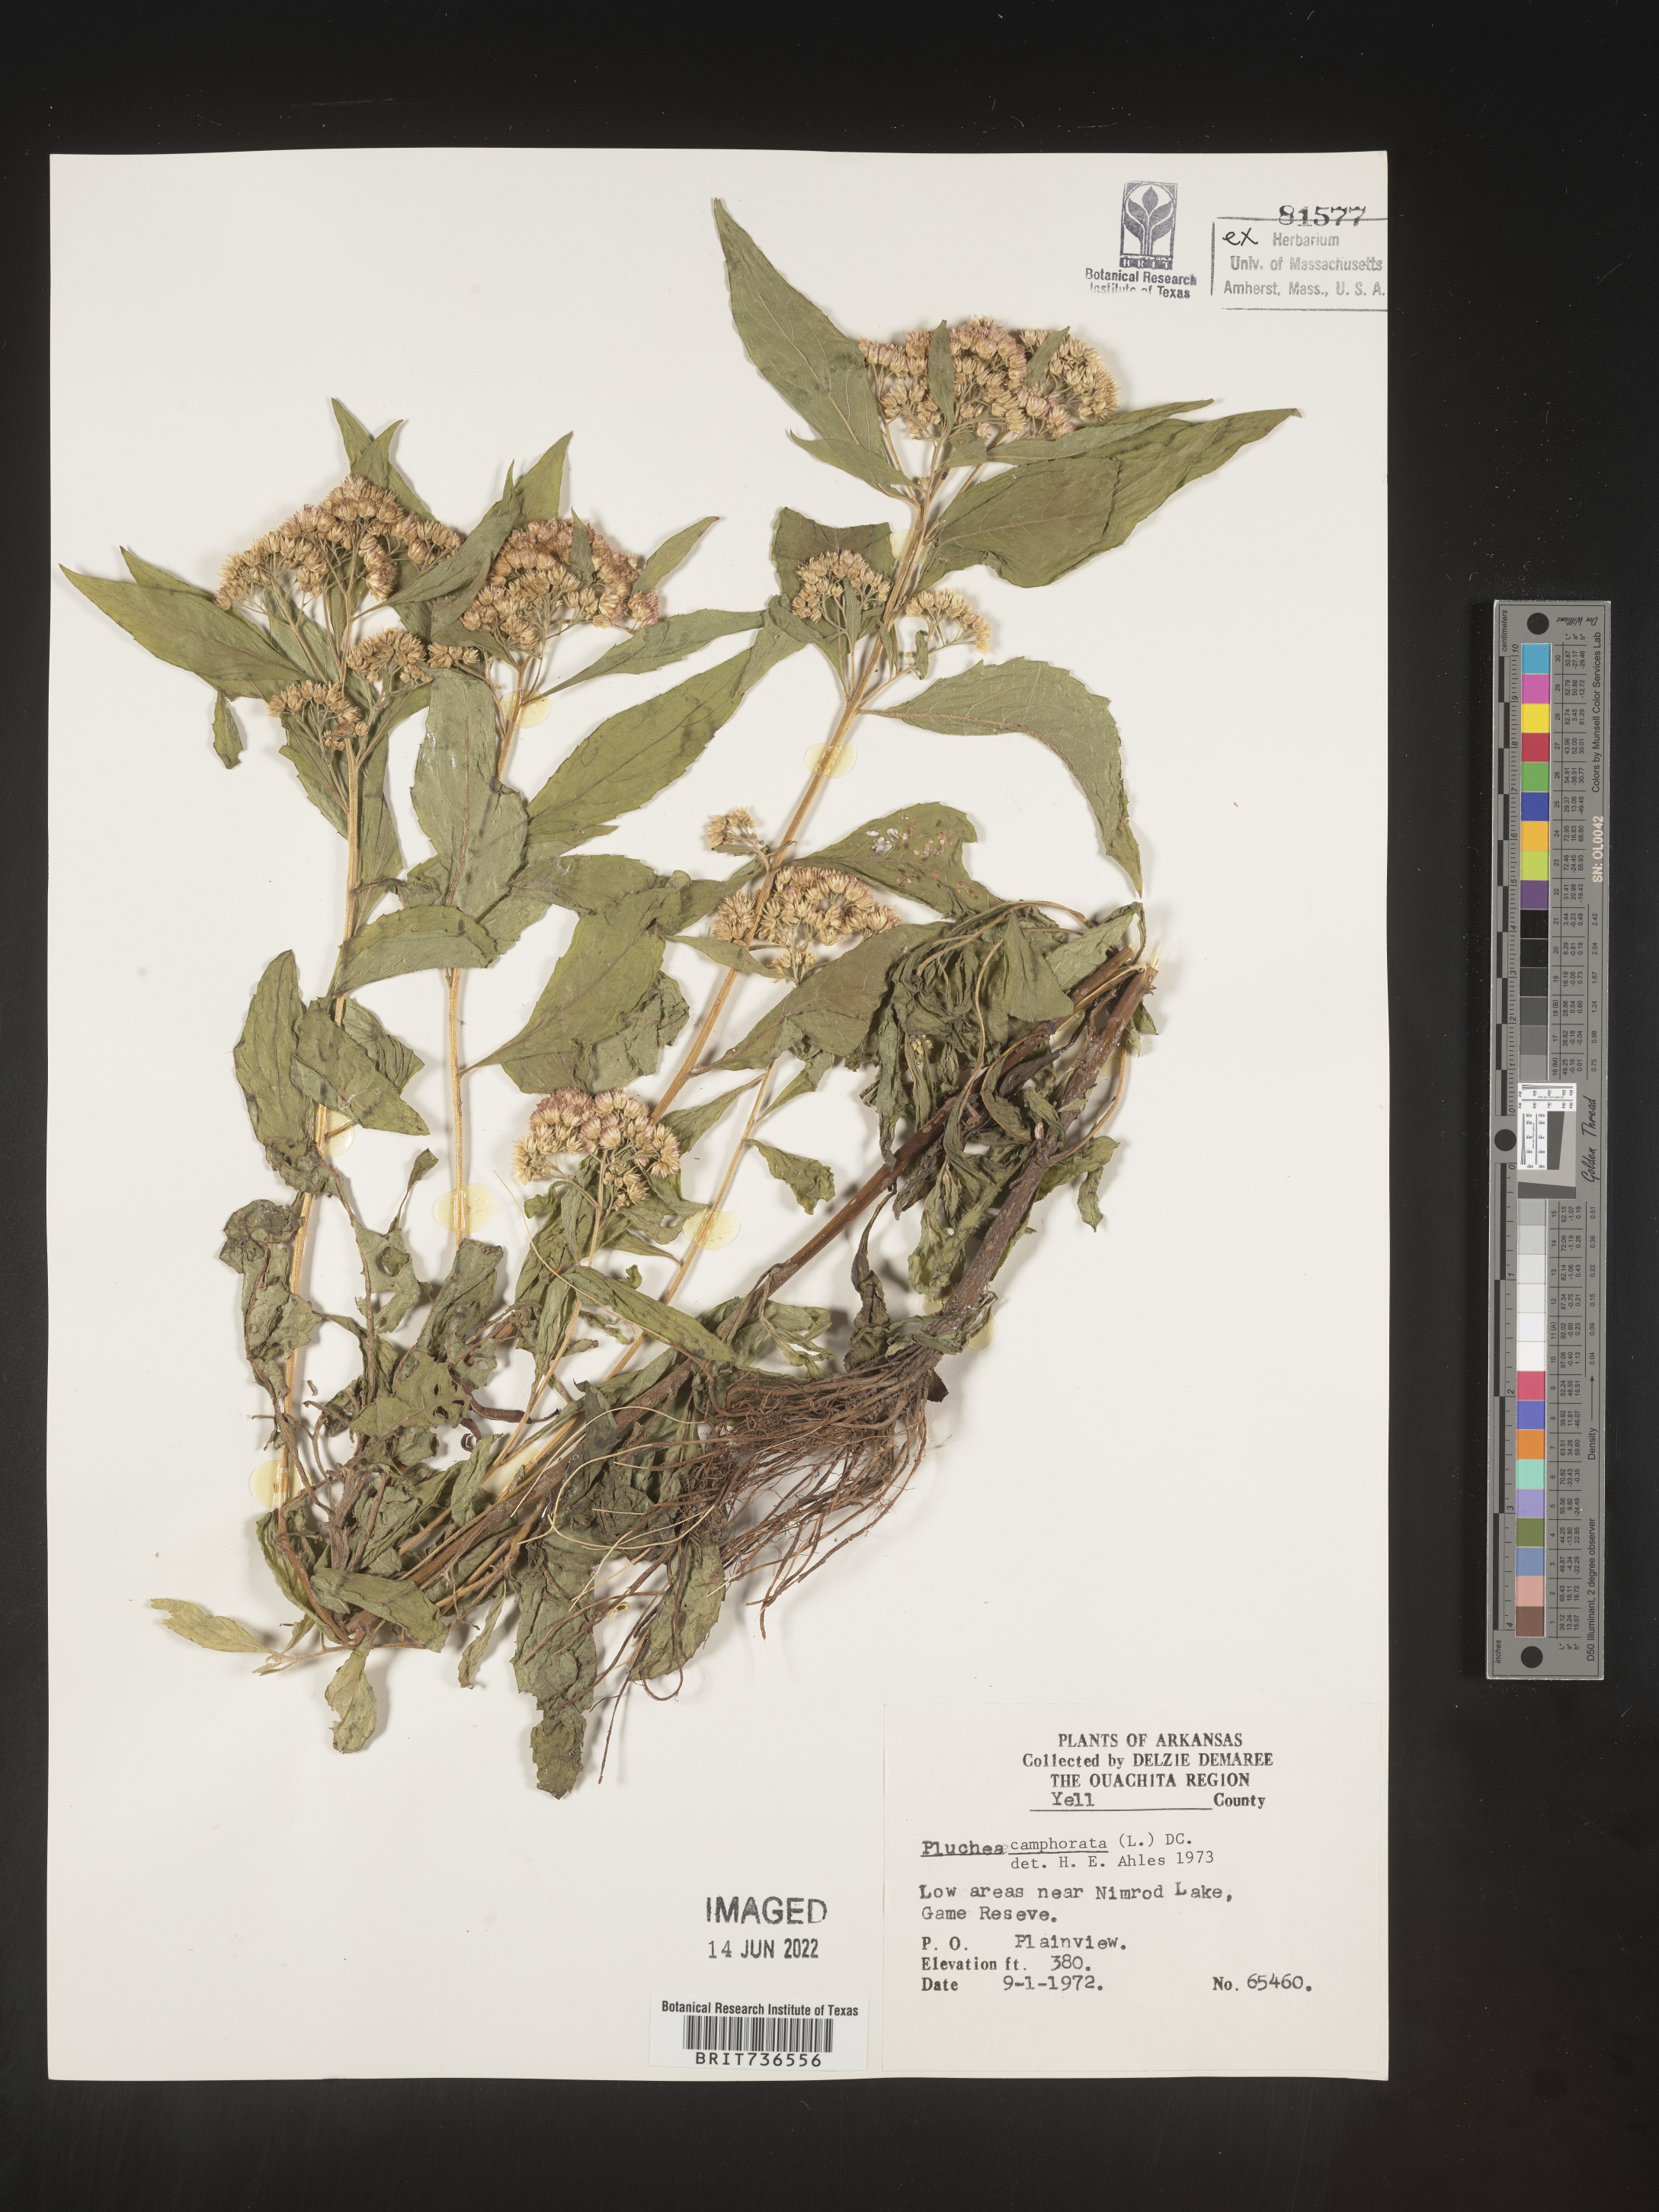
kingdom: Plantae
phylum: Tracheophyta
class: Magnoliopsida
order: Asterales
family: Asteraceae
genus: Pluchea
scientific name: Pluchea camphorata
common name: Camphor pluchea
